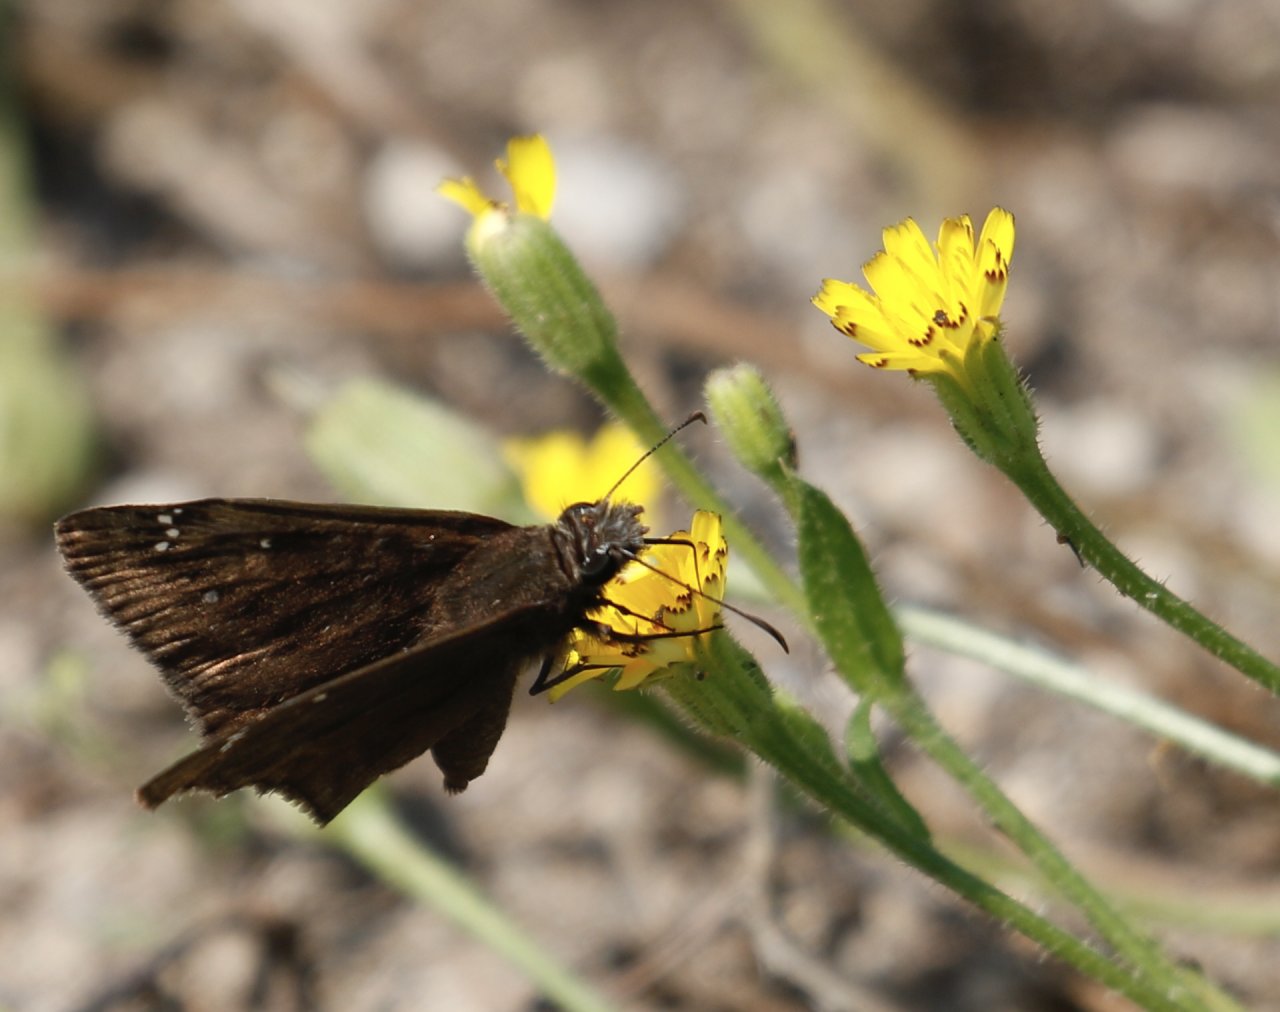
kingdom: Animalia
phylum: Arthropoda
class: Insecta
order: Lepidoptera
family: Hesperiidae
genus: Gesta
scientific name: Gesta
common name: Horace's Duskywing
